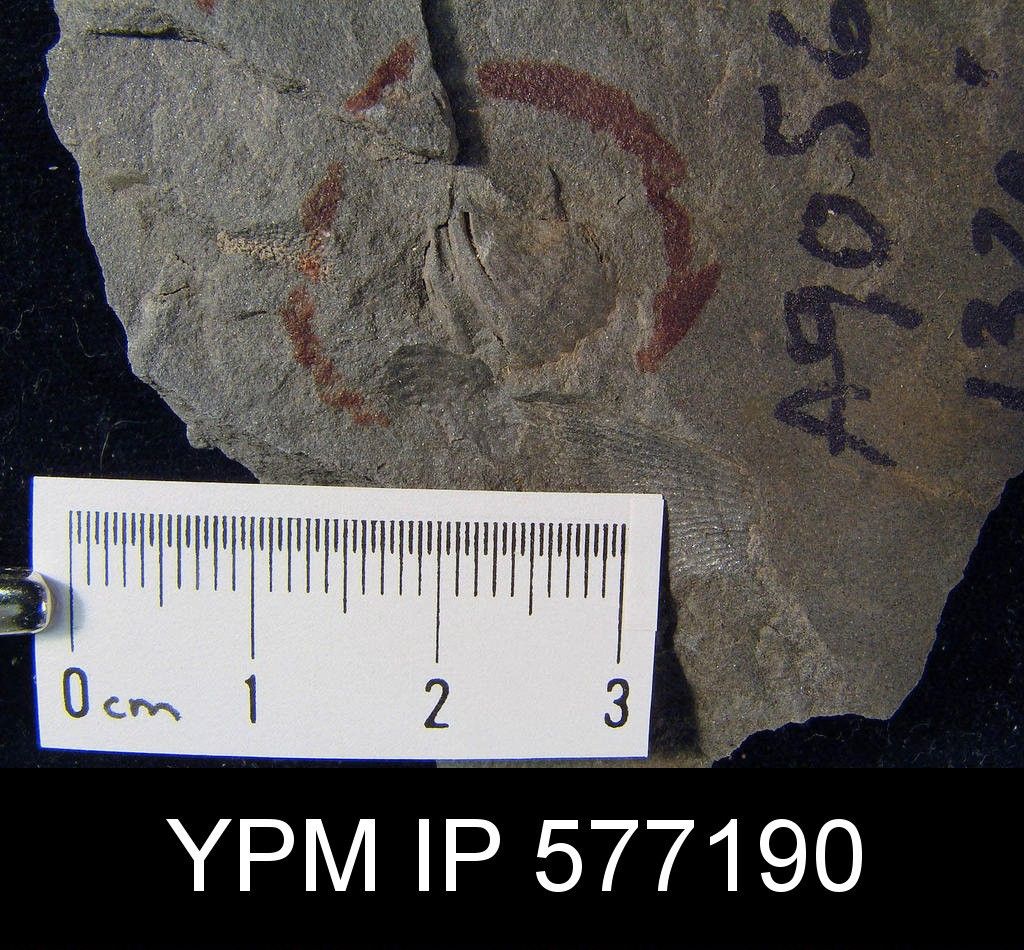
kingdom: Animalia
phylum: Brachiopoda
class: Rhynchonellata
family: Mucrospiriferidae
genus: Tylothyris
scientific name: Tylothyris
